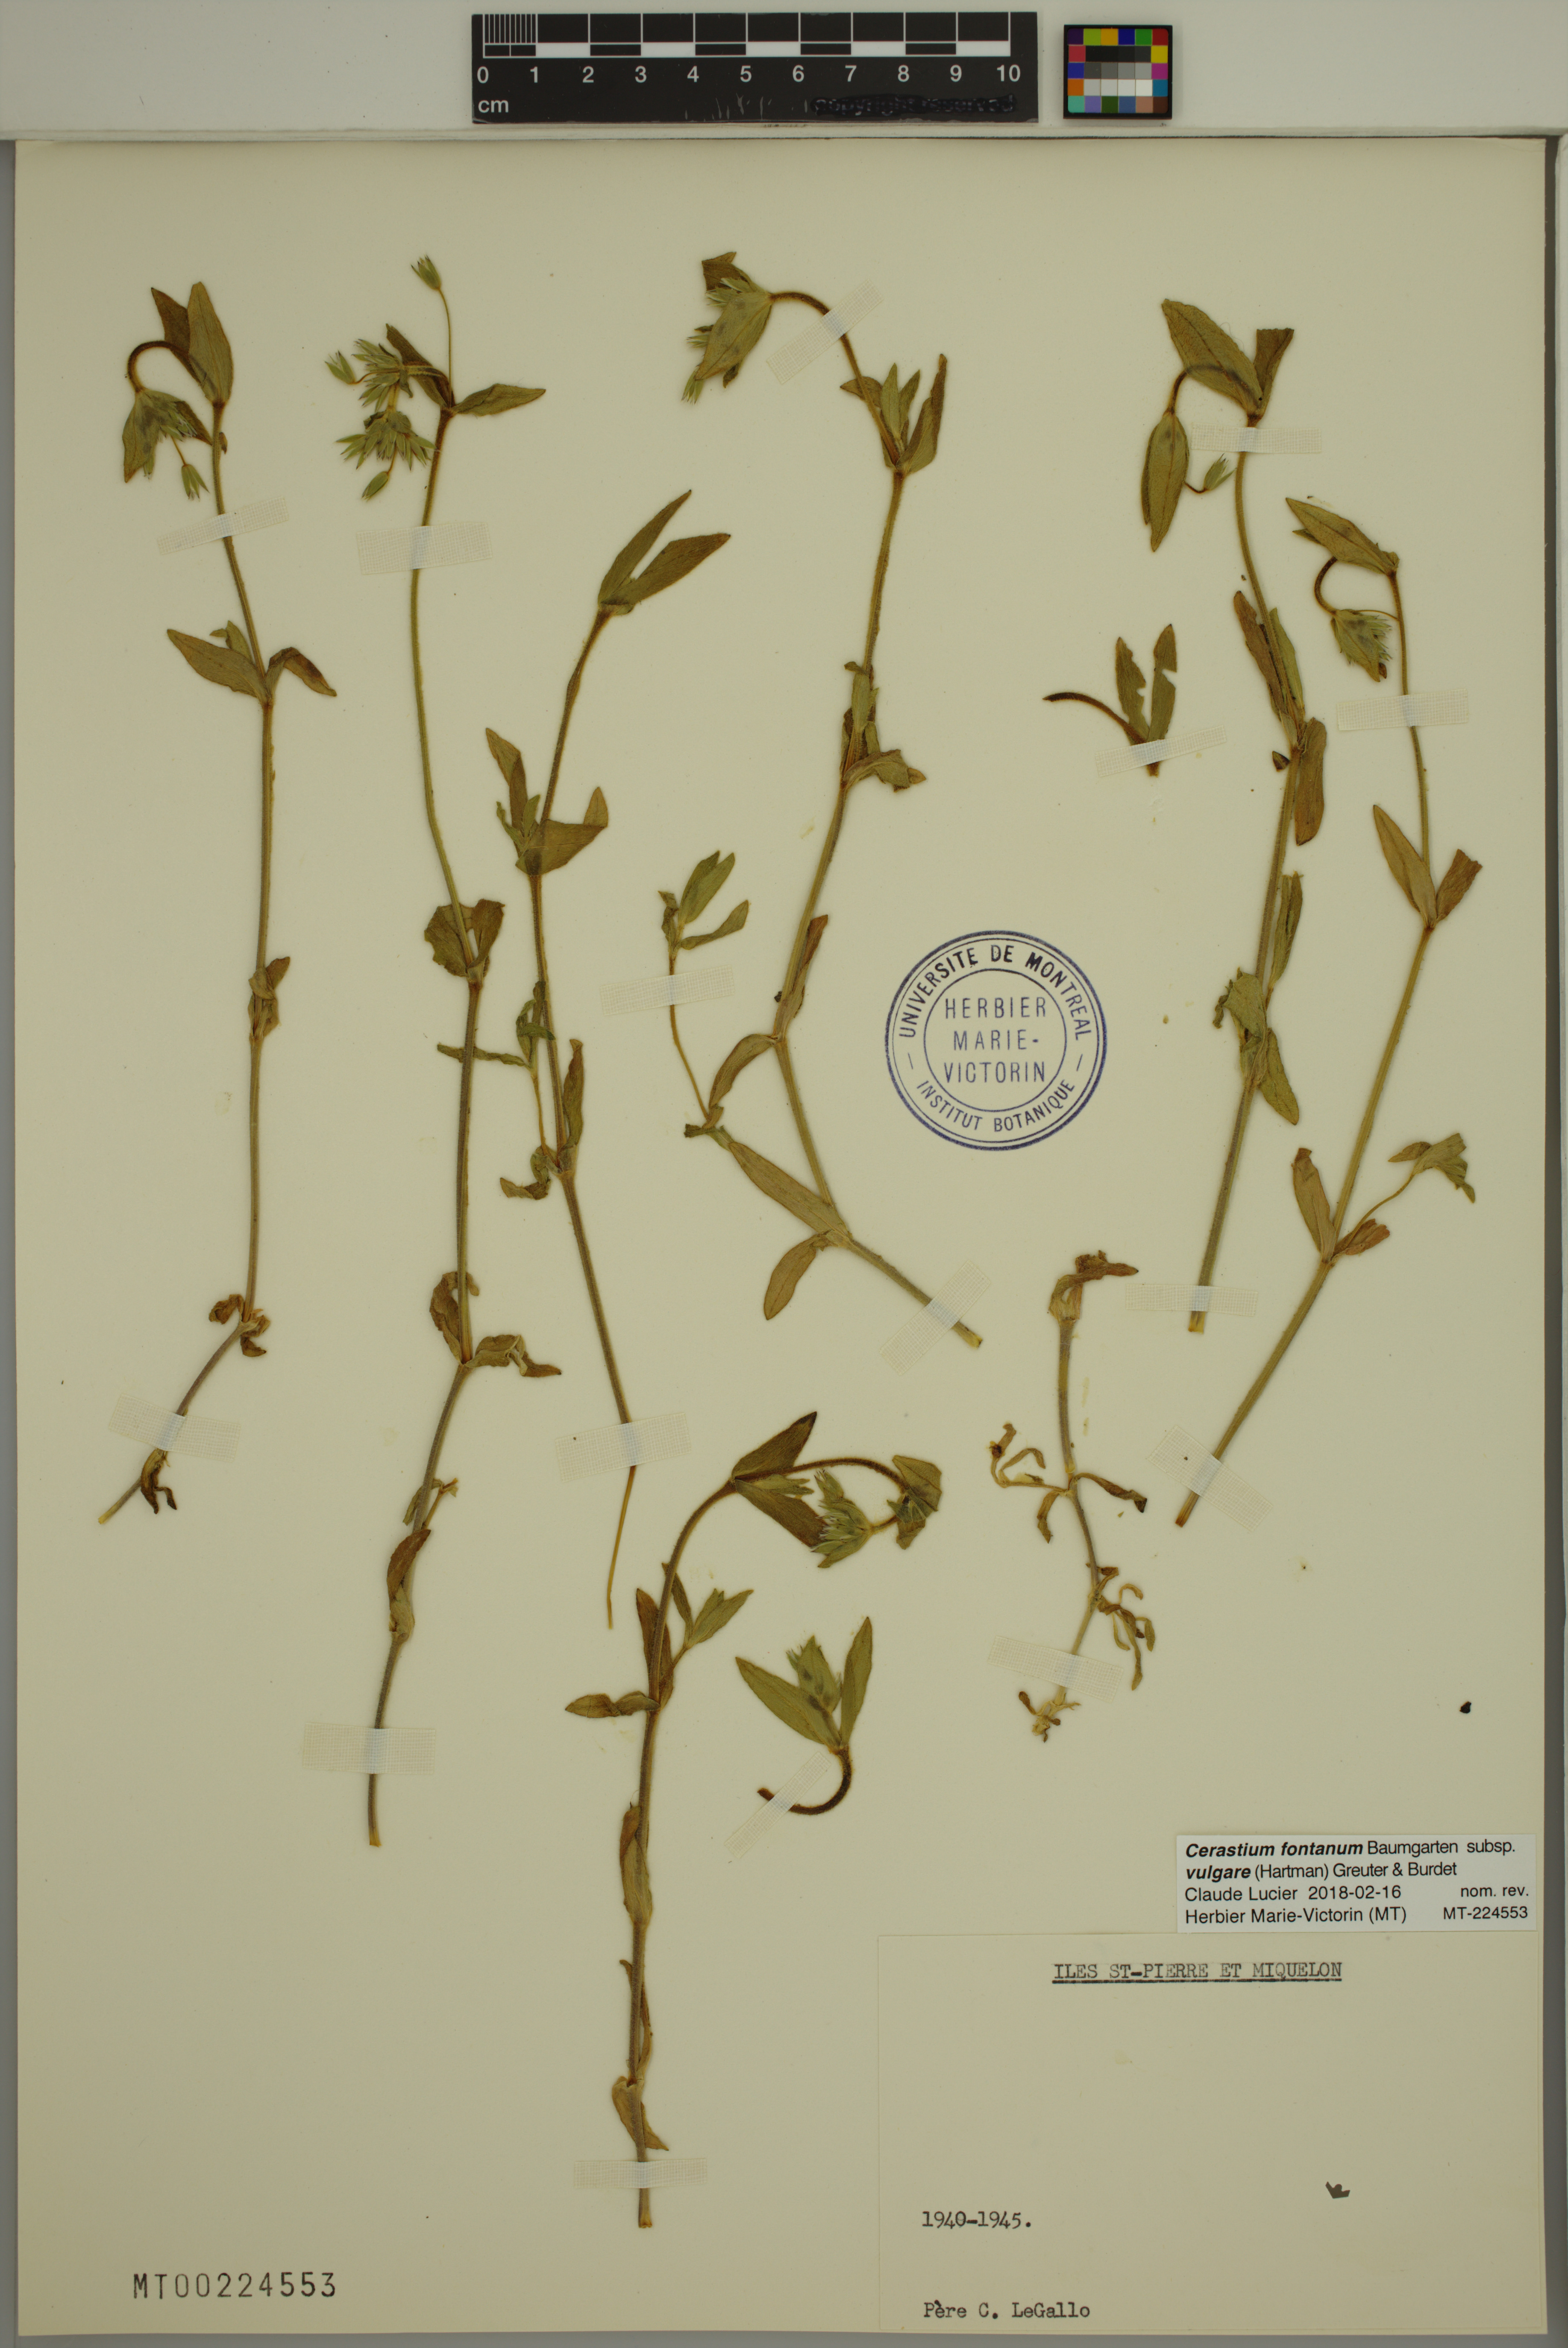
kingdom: Plantae
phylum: Tracheophyta
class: Magnoliopsida
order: Caryophyllales
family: Caryophyllaceae
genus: Cerastium
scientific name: Cerastium holosteoides
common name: Big chickweed
